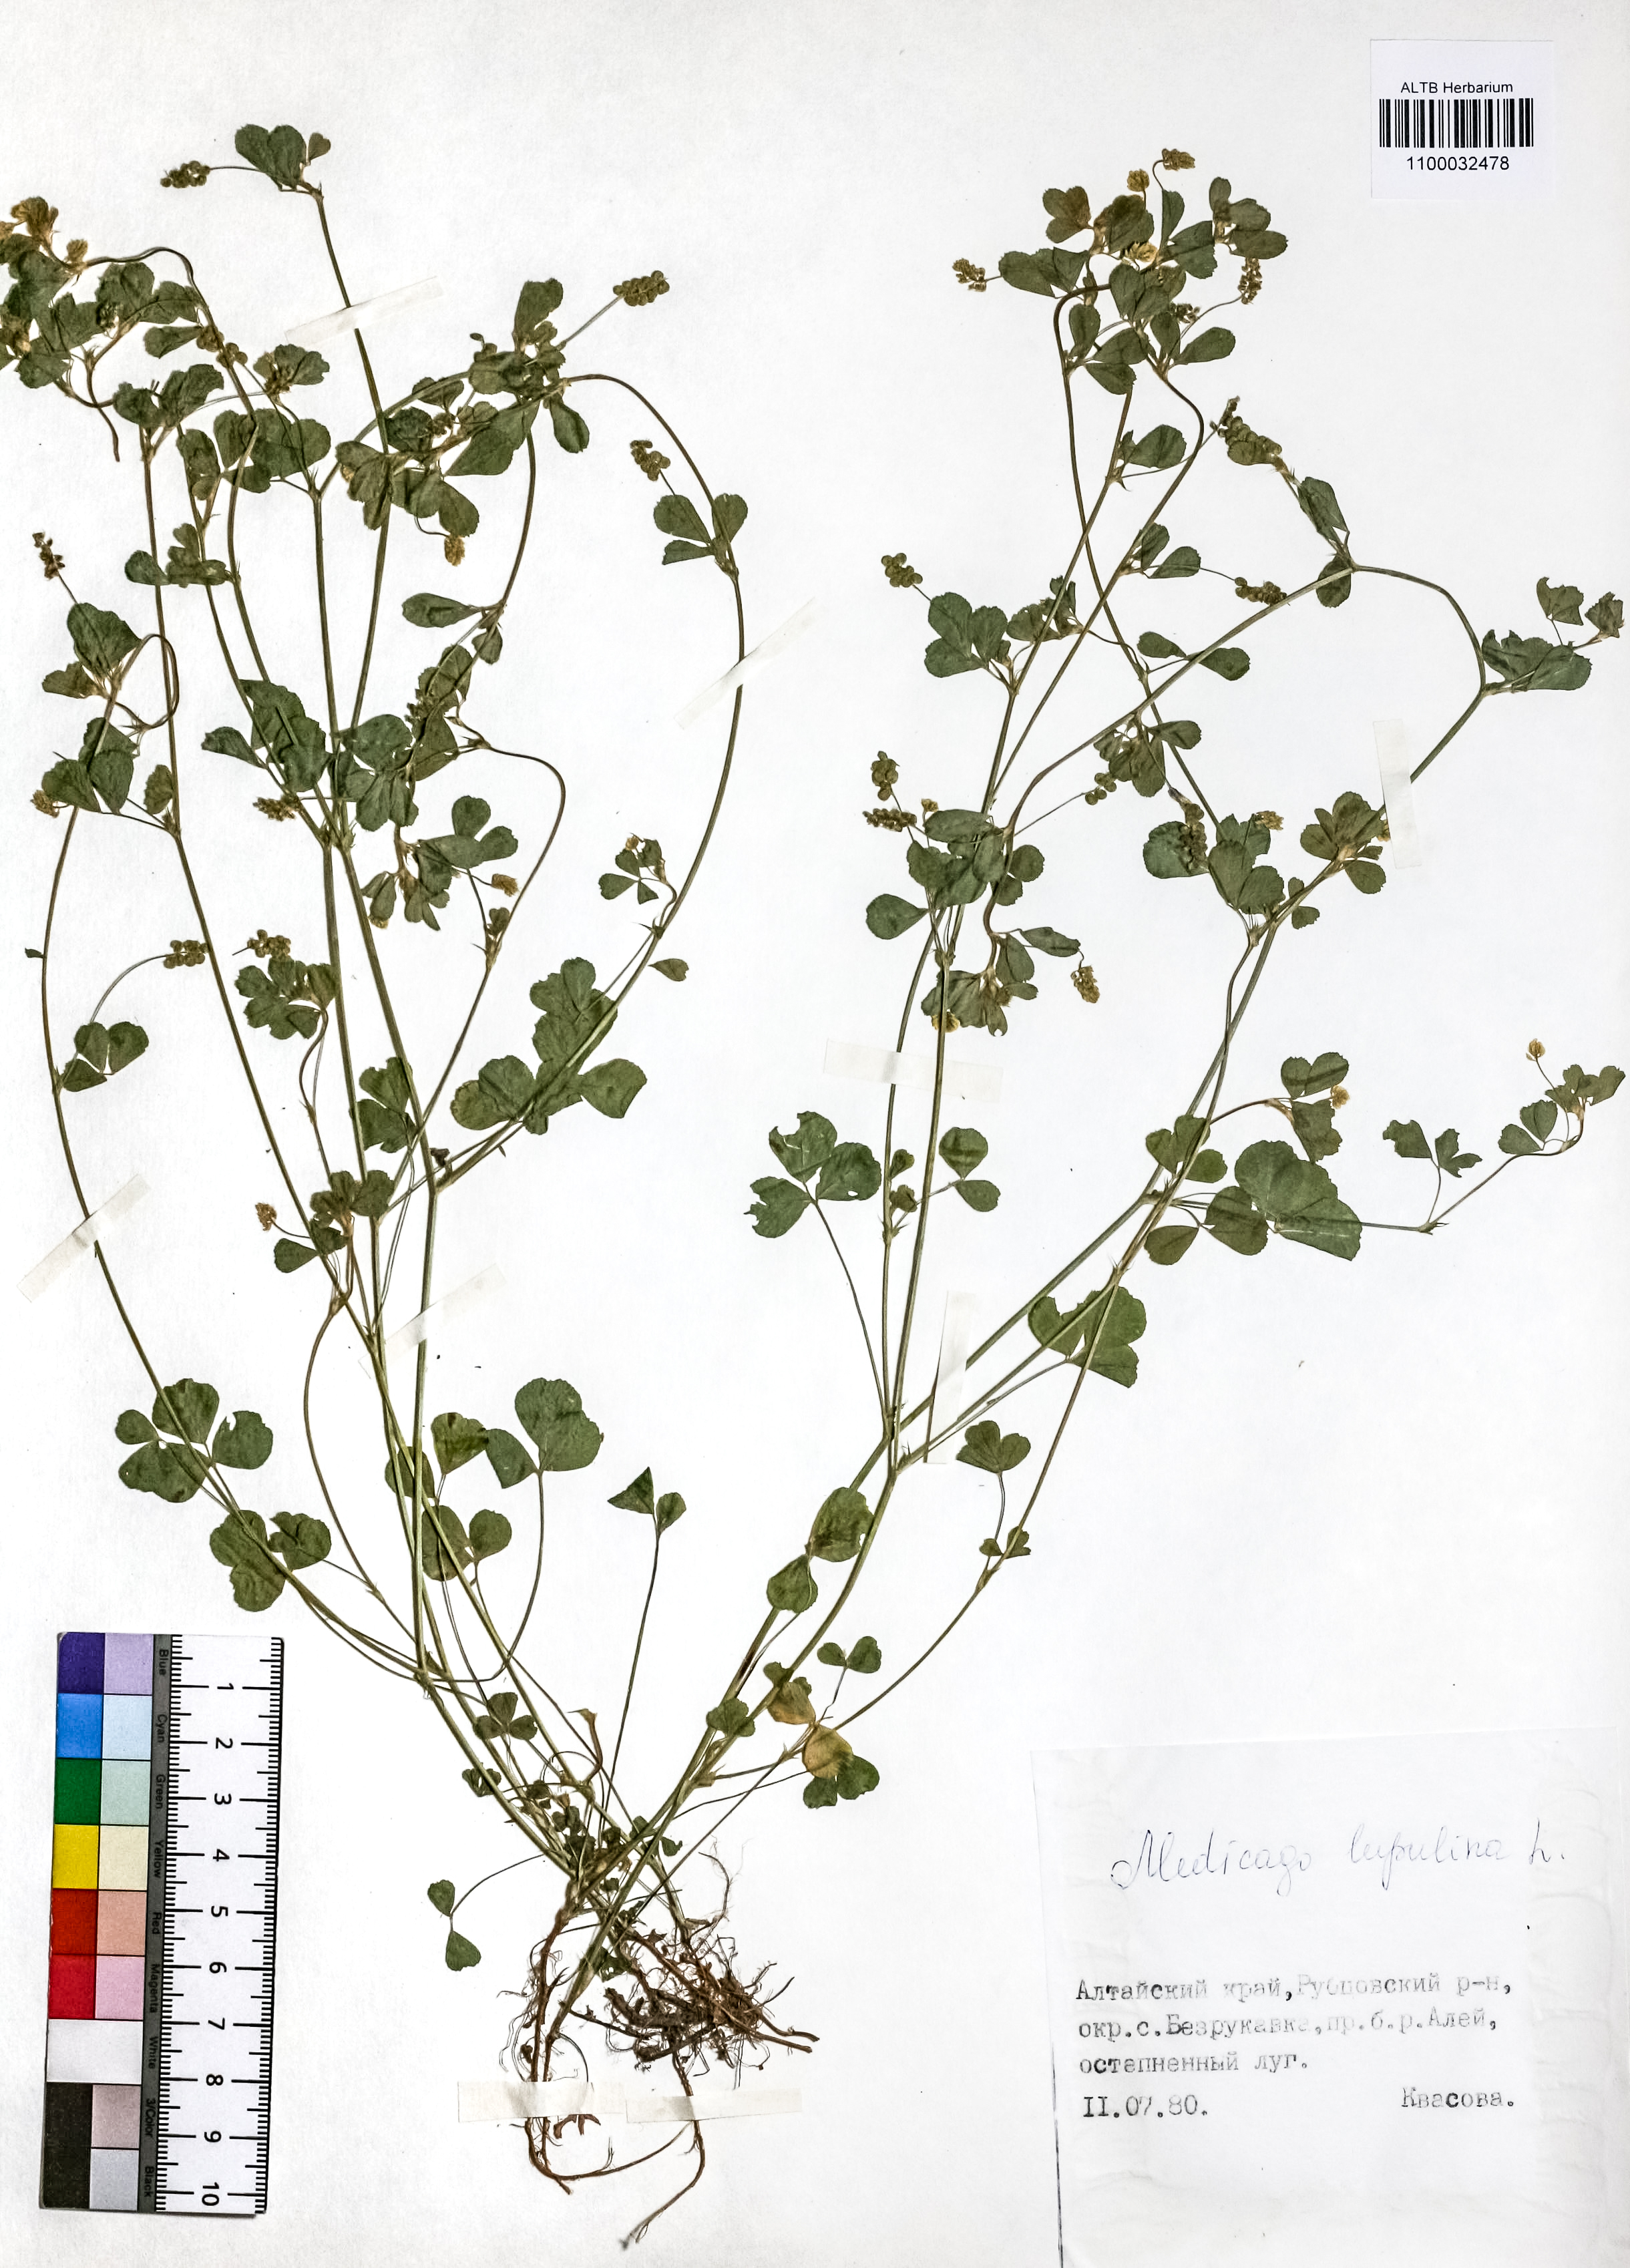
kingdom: Plantae
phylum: Tracheophyta
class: Magnoliopsida
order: Fabales
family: Fabaceae
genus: Medicago
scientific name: Medicago lupulina
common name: Black medick
